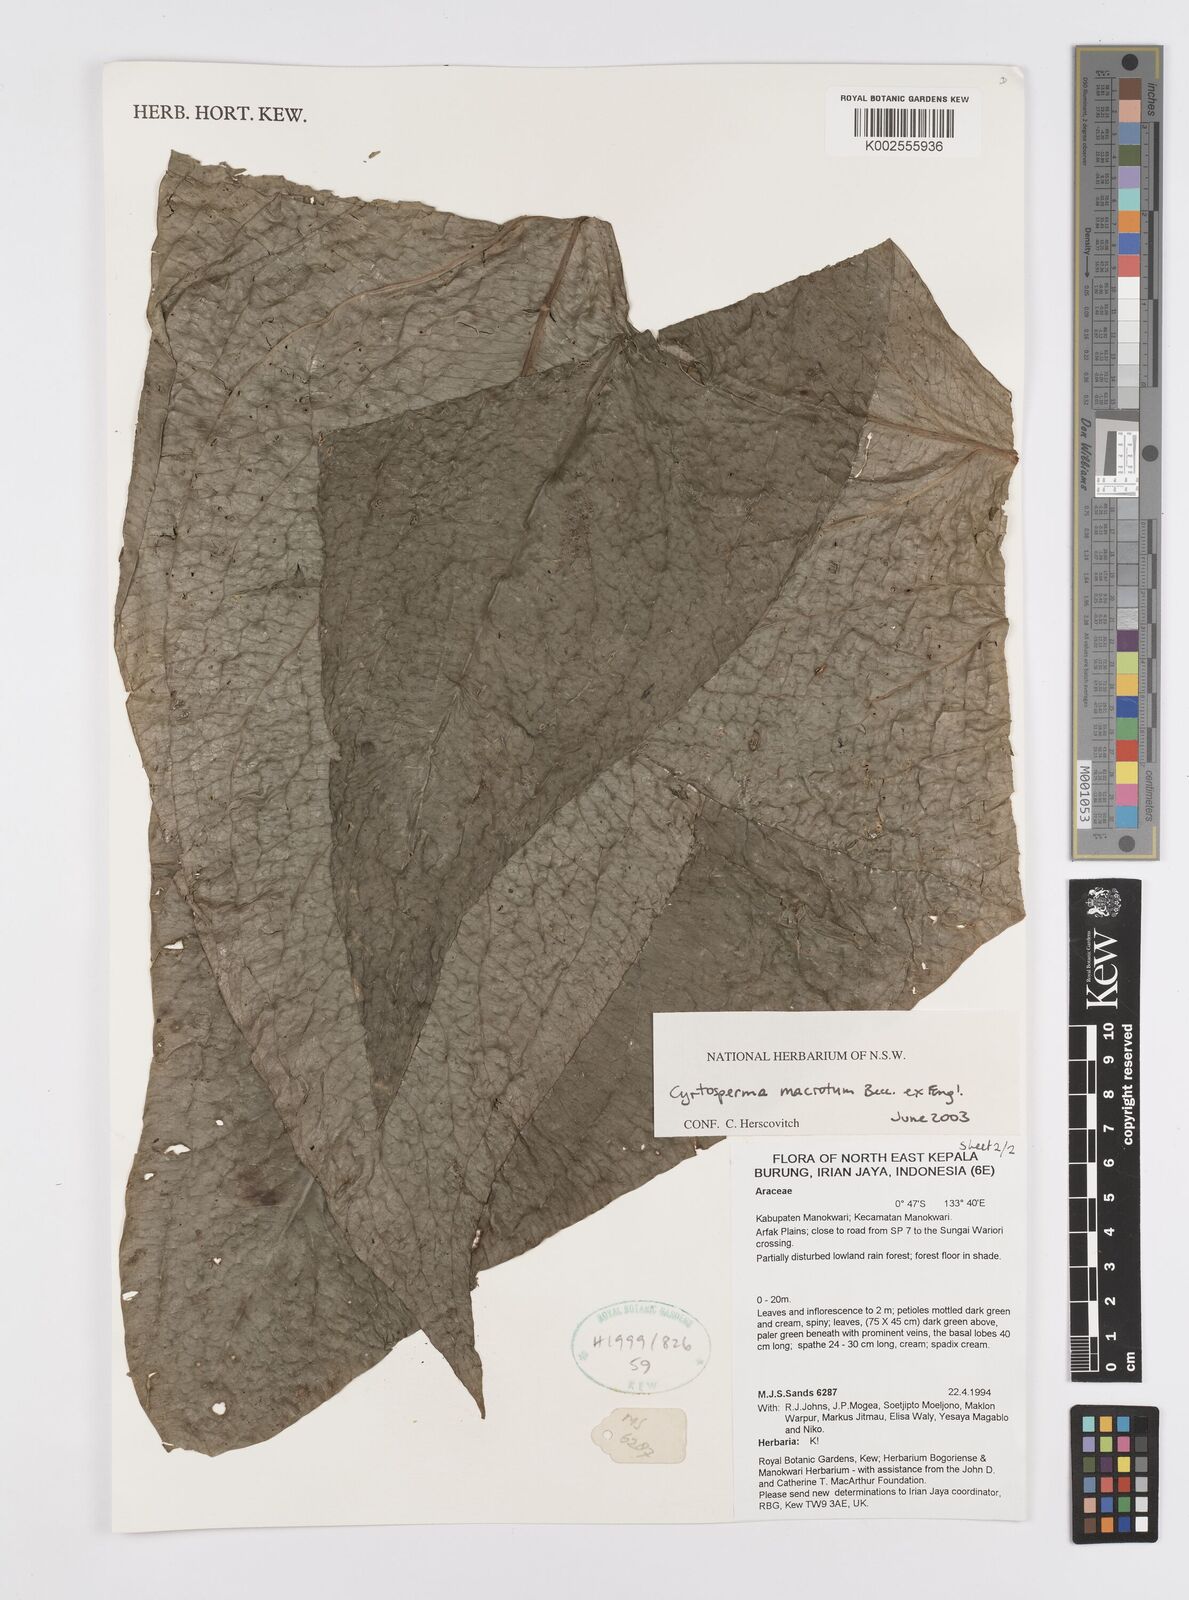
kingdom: Plantae
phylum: Tracheophyta
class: Liliopsida
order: Alismatales
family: Araceae
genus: Cyrtosperma
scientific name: Cyrtosperma macrotum
